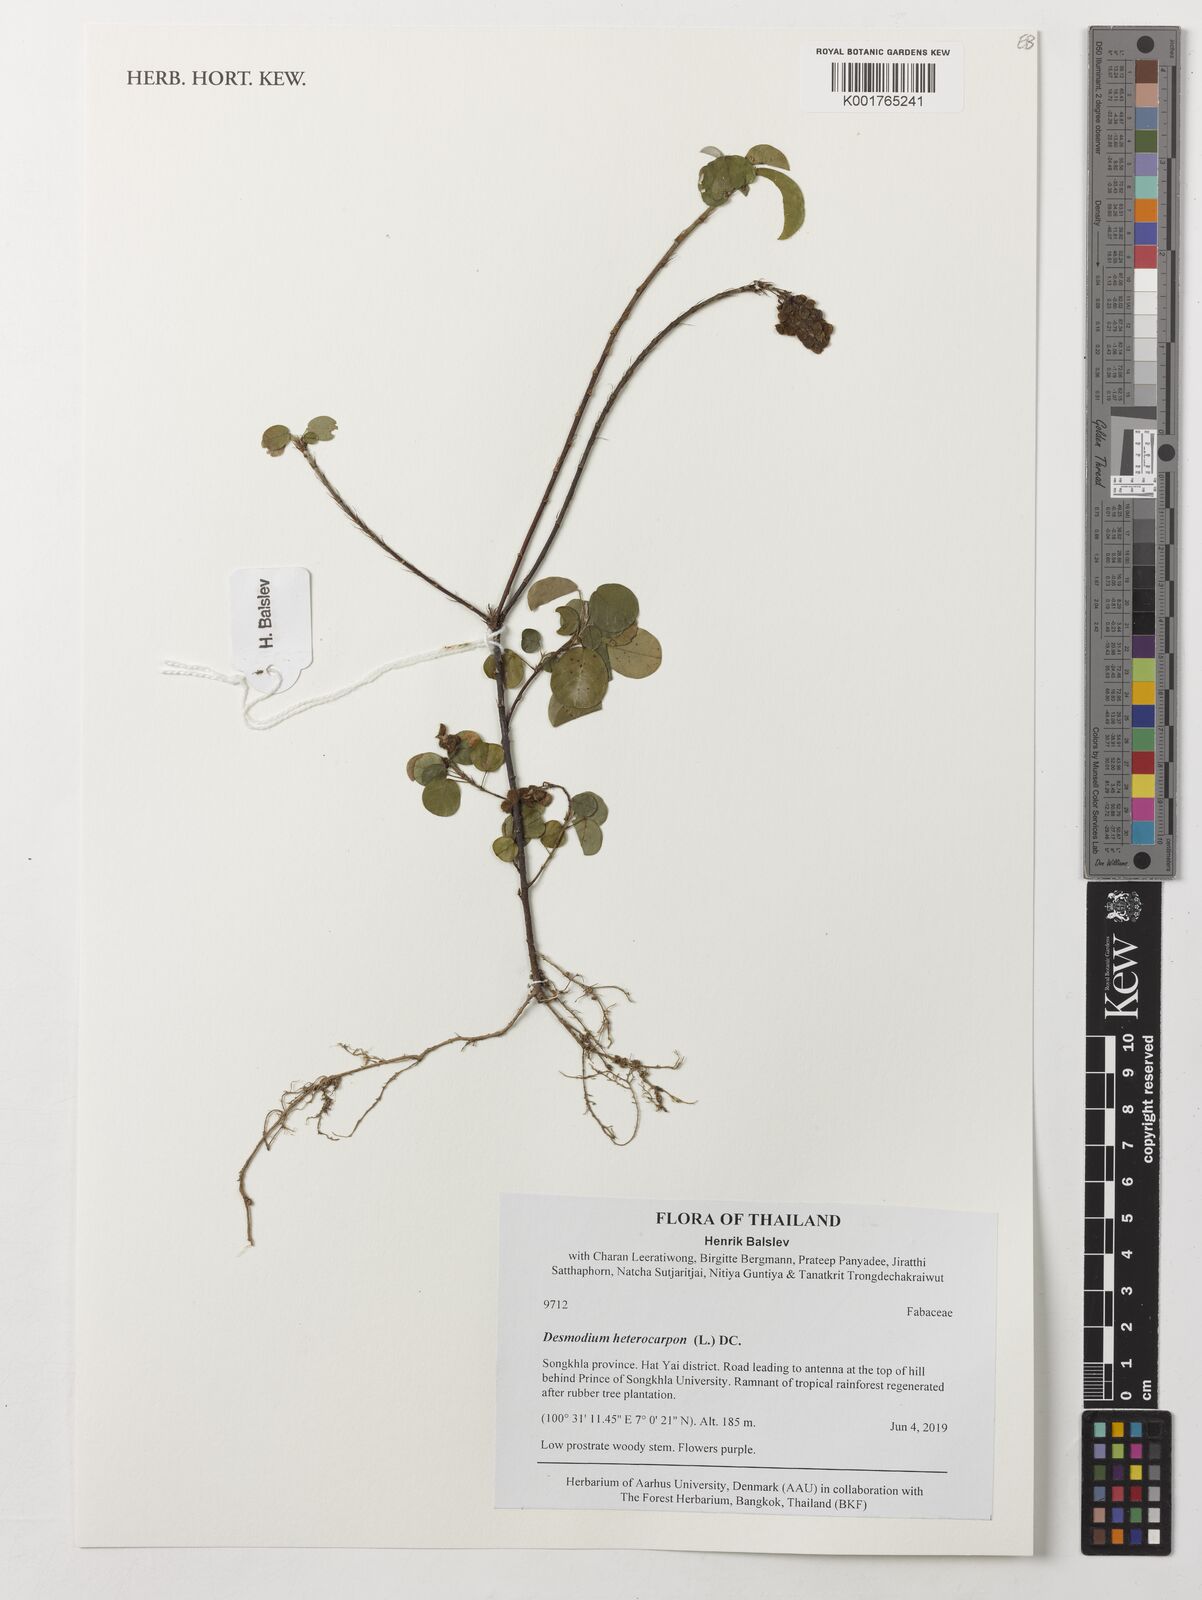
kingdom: Plantae
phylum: Tracheophyta
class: Magnoliopsida
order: Fabales
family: Fabaceae
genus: Grona
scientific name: Grona heterocarpos
